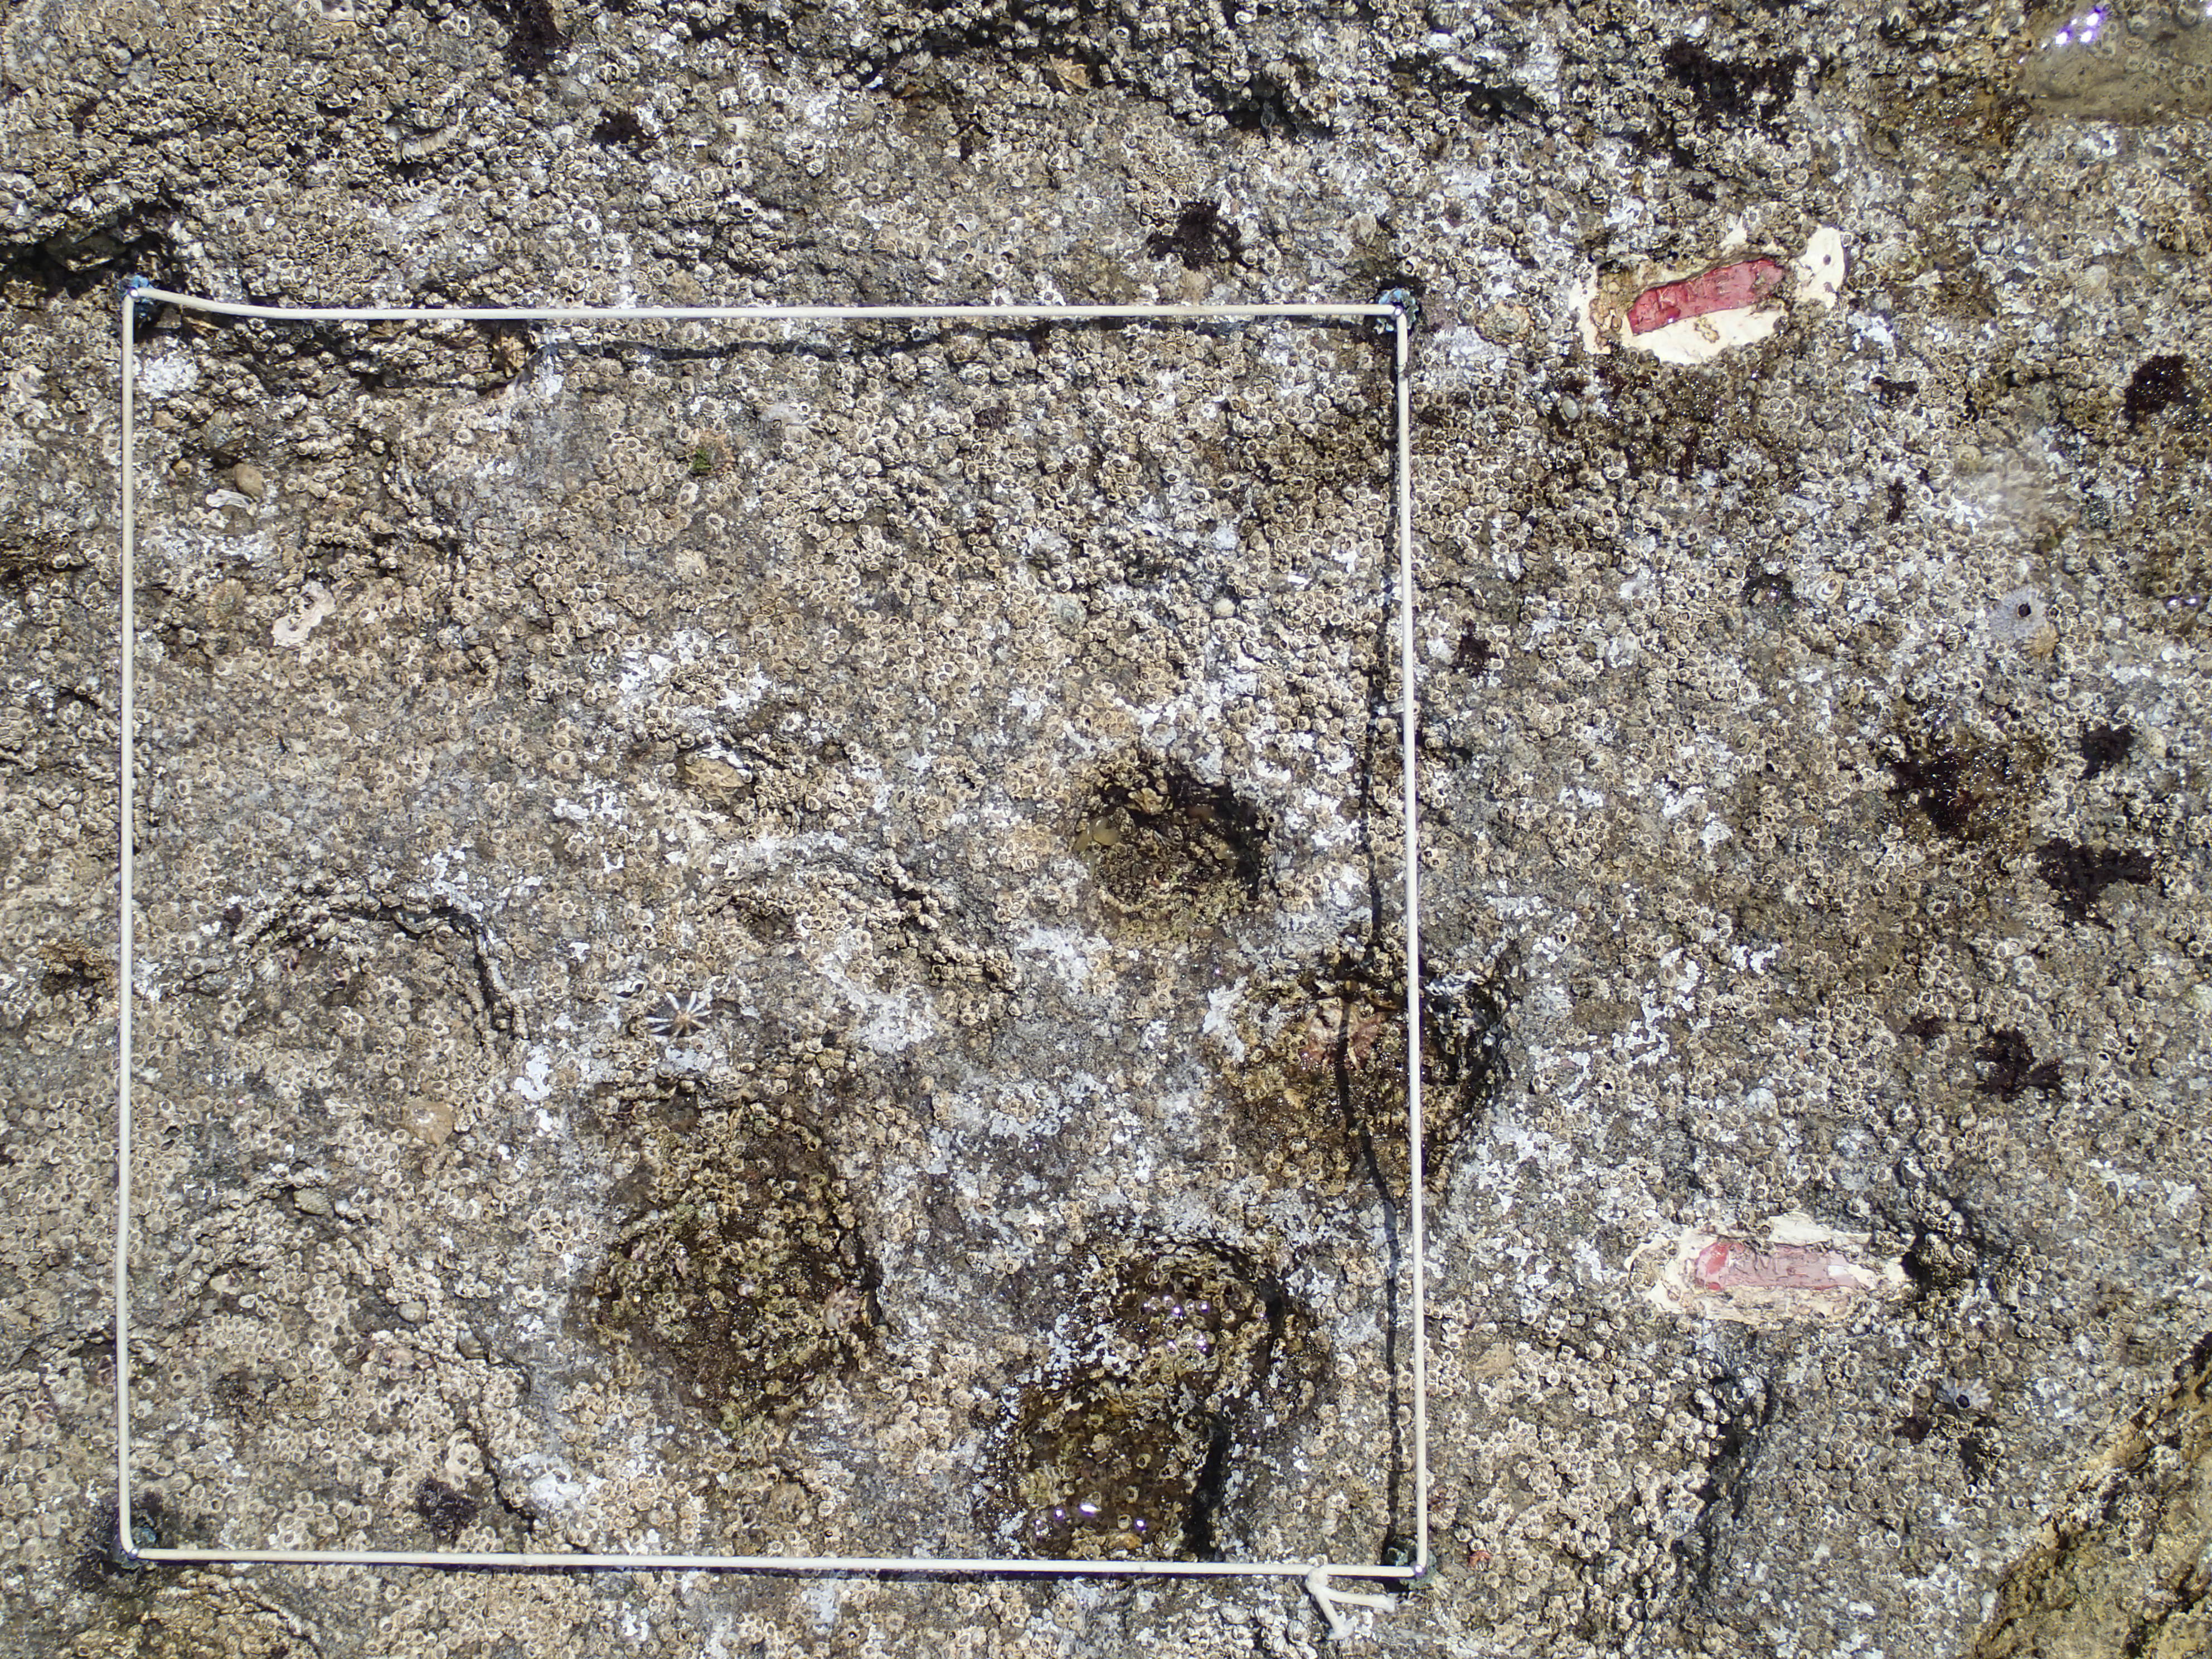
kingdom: Animalia
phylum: Arthropoda
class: Maxillopoda
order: Sessilia
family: Chthamalidae
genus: Chthamalus
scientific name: Chthamalus challengeri
